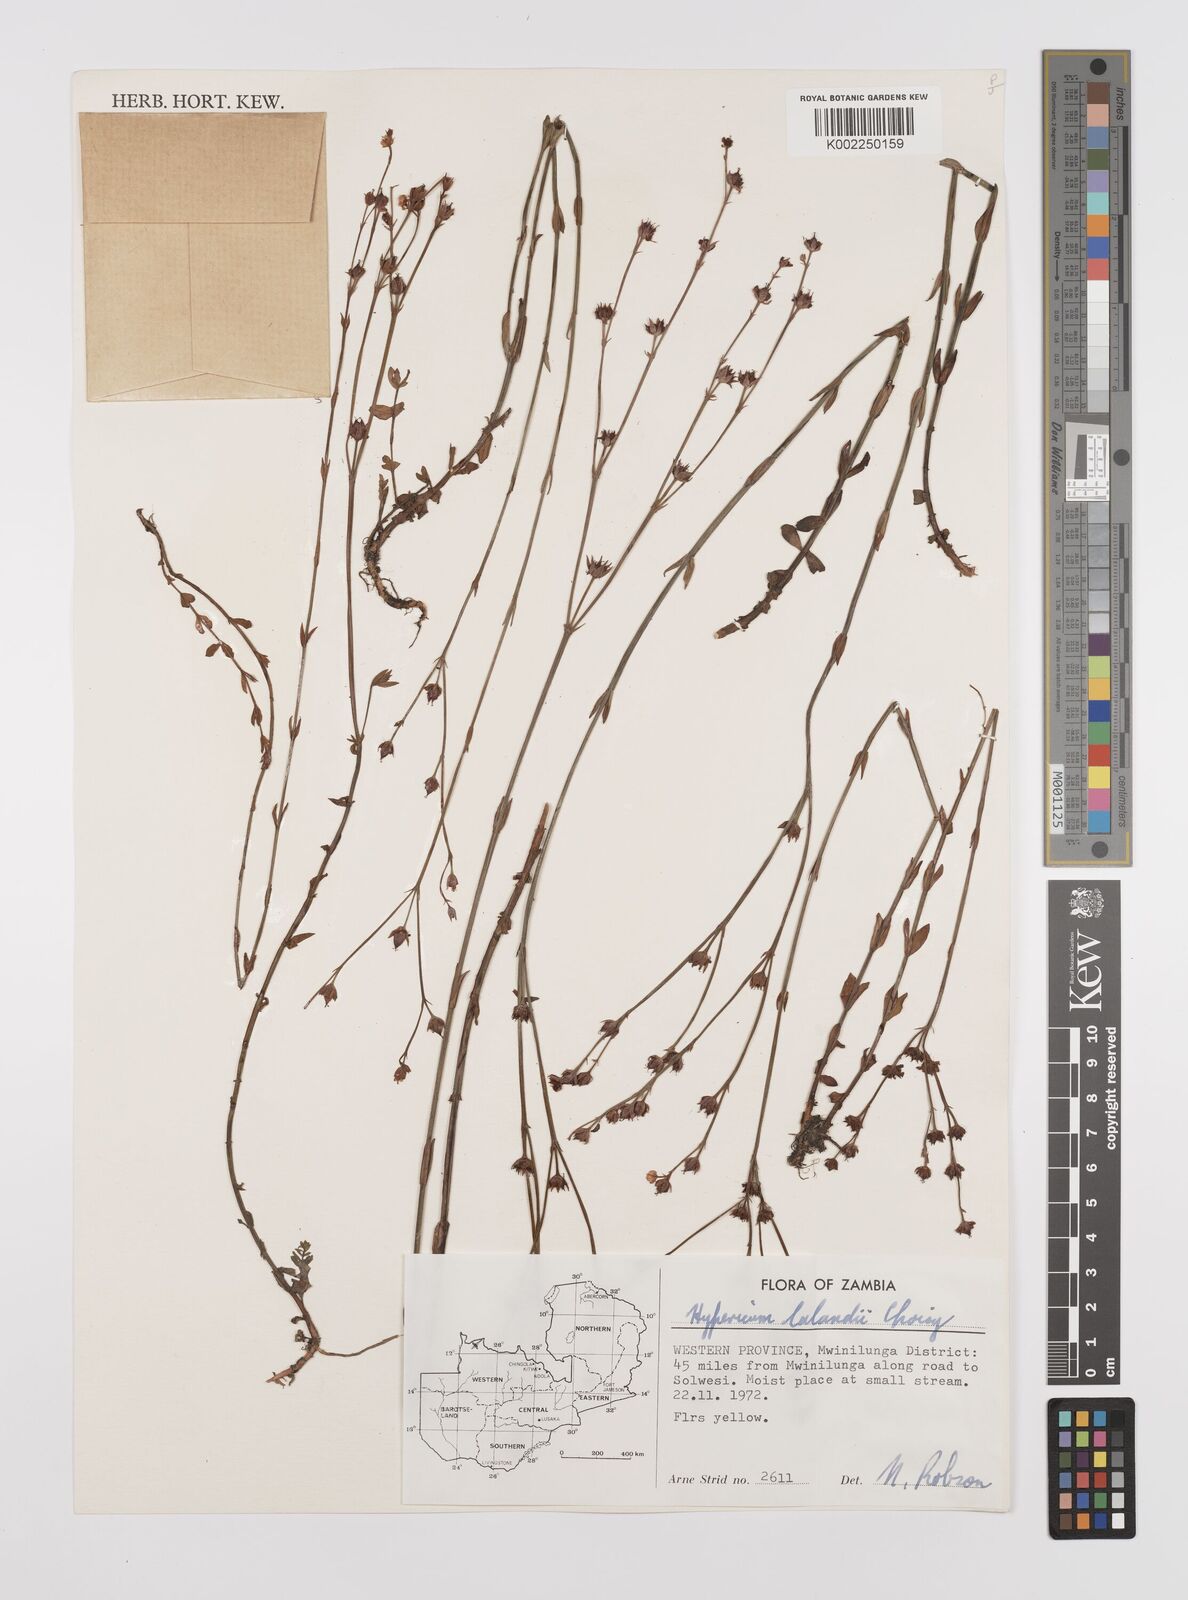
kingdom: Plantae
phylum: Tracheophyta
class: Magnoliopsida
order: Malpighiales
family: Hypericaceae
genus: Hypericum
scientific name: Hypericum lalandii
